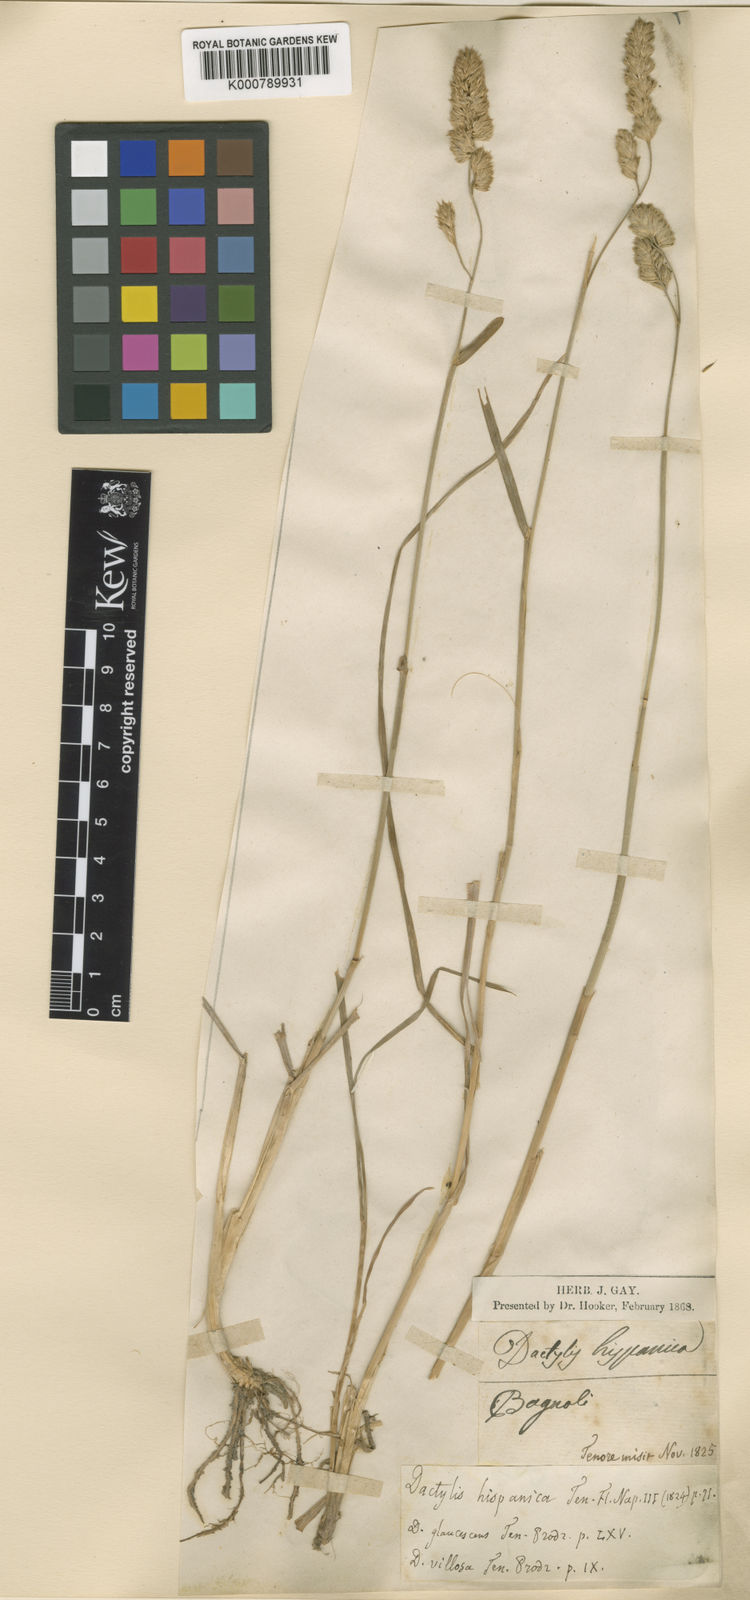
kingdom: Plantae
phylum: Tracheophyta
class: Liliopsida
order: Poales
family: Poaceae
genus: Dactylis
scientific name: Dactylis glomerata
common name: Orchardgrass
